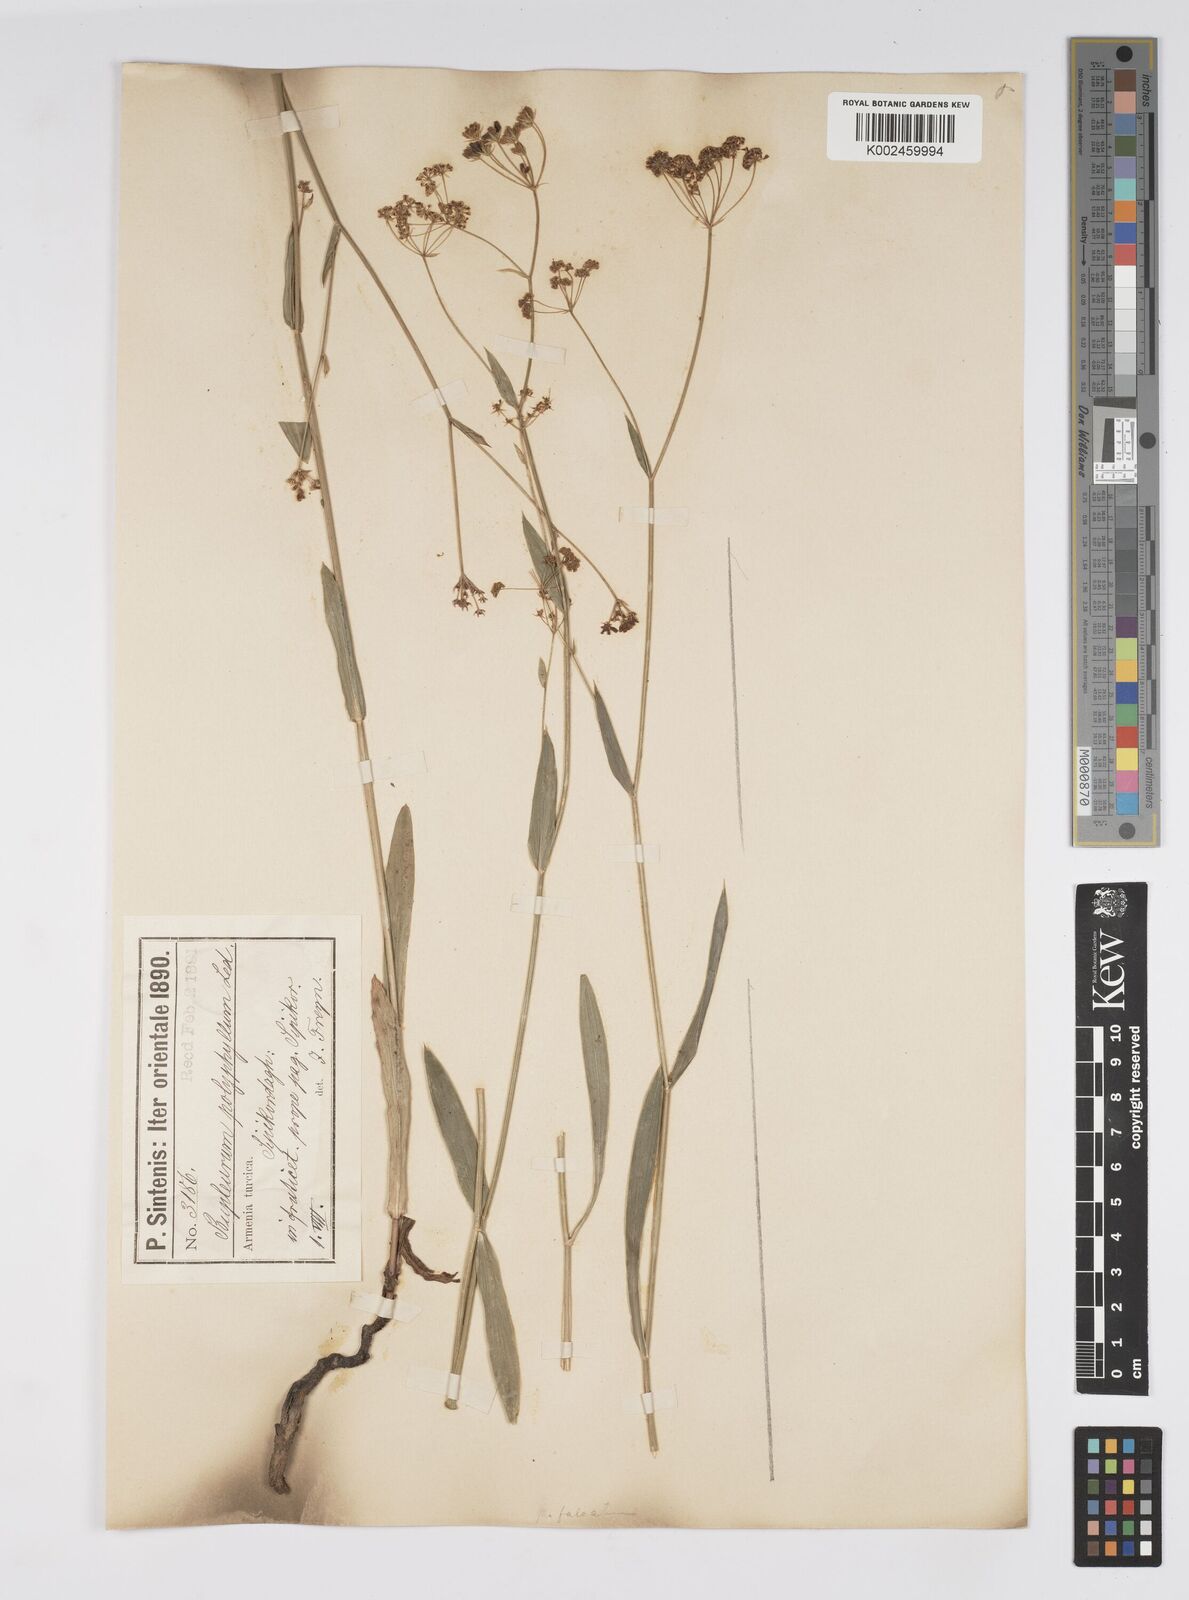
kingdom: Plantae
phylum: Tracheophyta
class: Magnoliopsida
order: Apiales
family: Apiaceae
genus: Bupleurum
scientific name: Bupleurum falcatum
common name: Sickle-leaved hare's-ear
